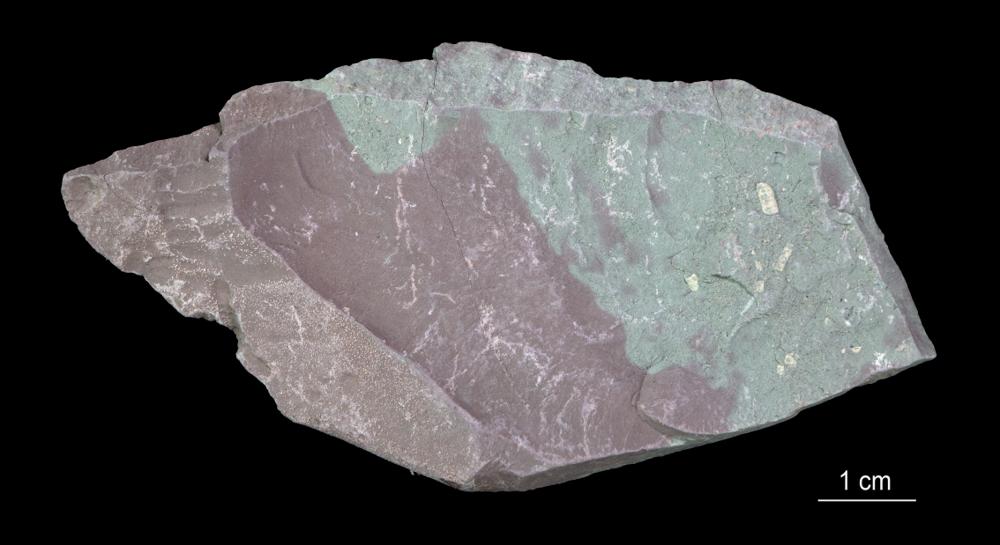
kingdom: Chromista
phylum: Foraminifera
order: Astrorhizida
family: Hyperamminidae
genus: Platysolenites
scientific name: Platysolenites
